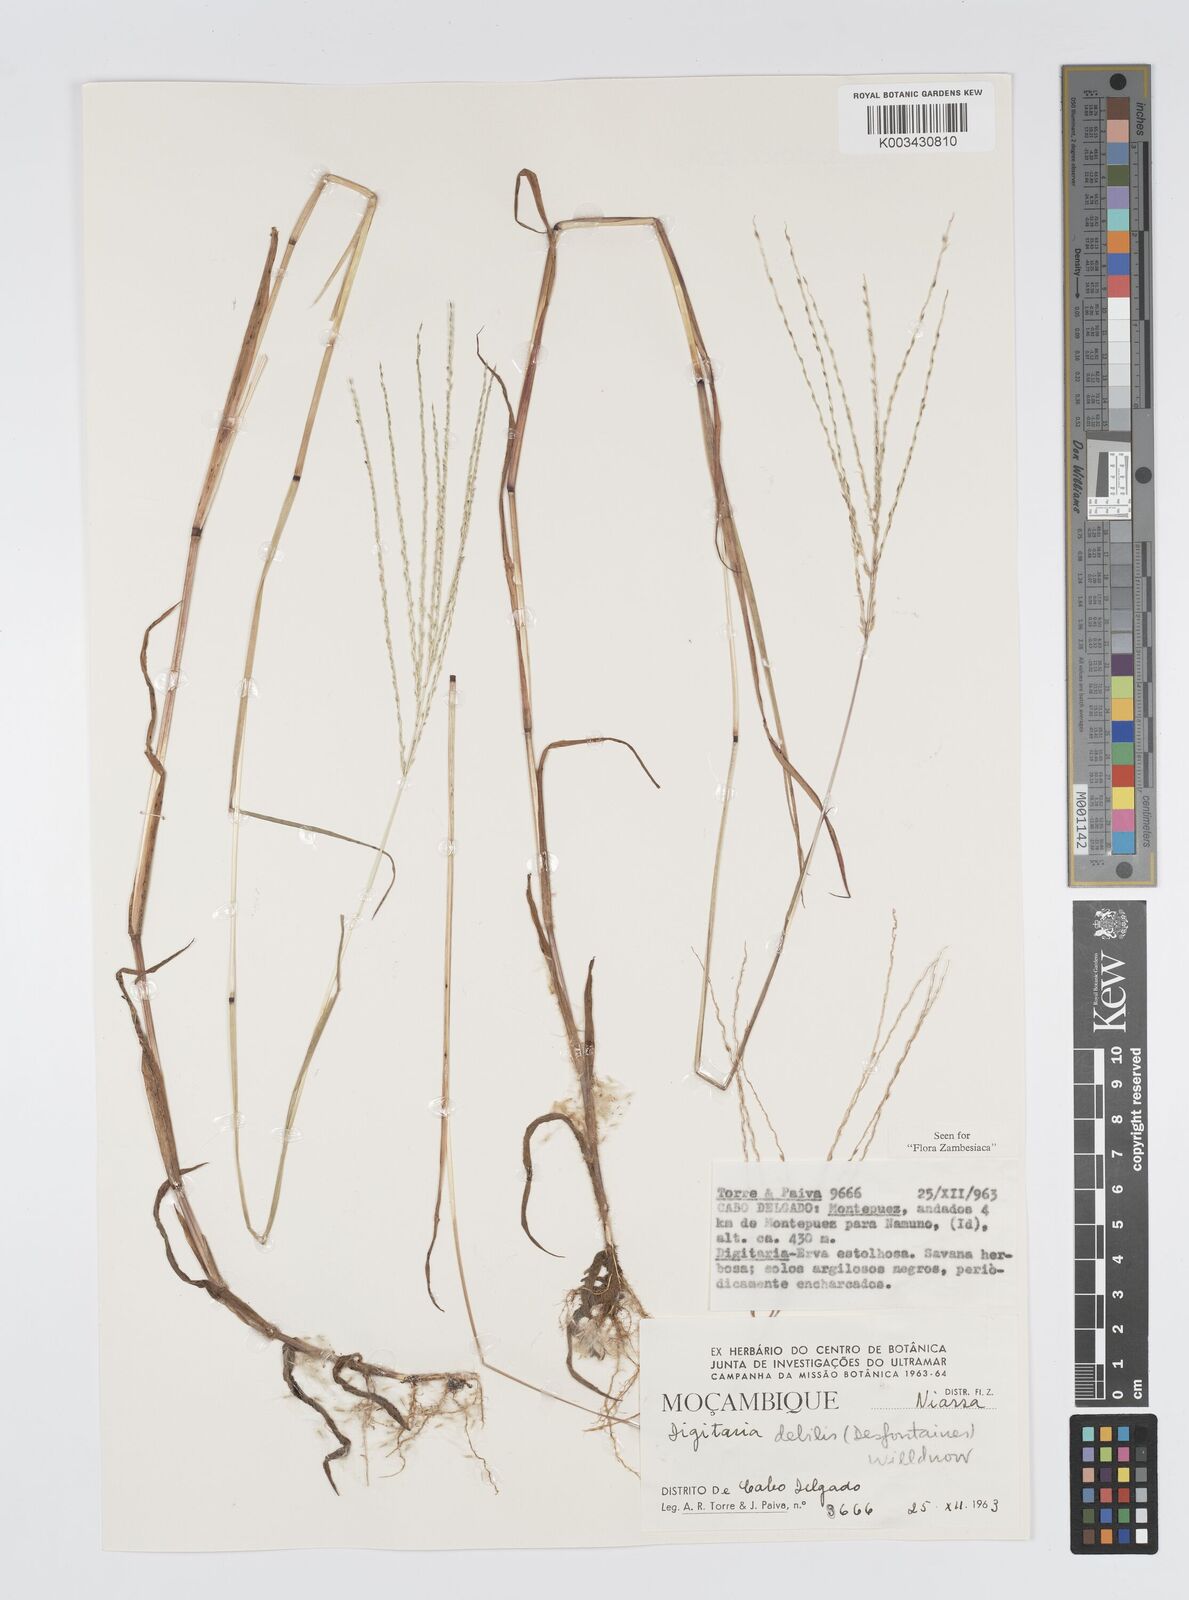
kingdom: Plantae
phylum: Tracheophyta
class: Liliopsida
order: Poales
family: Poaceae
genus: Digitaria
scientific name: Digitaria debilis
